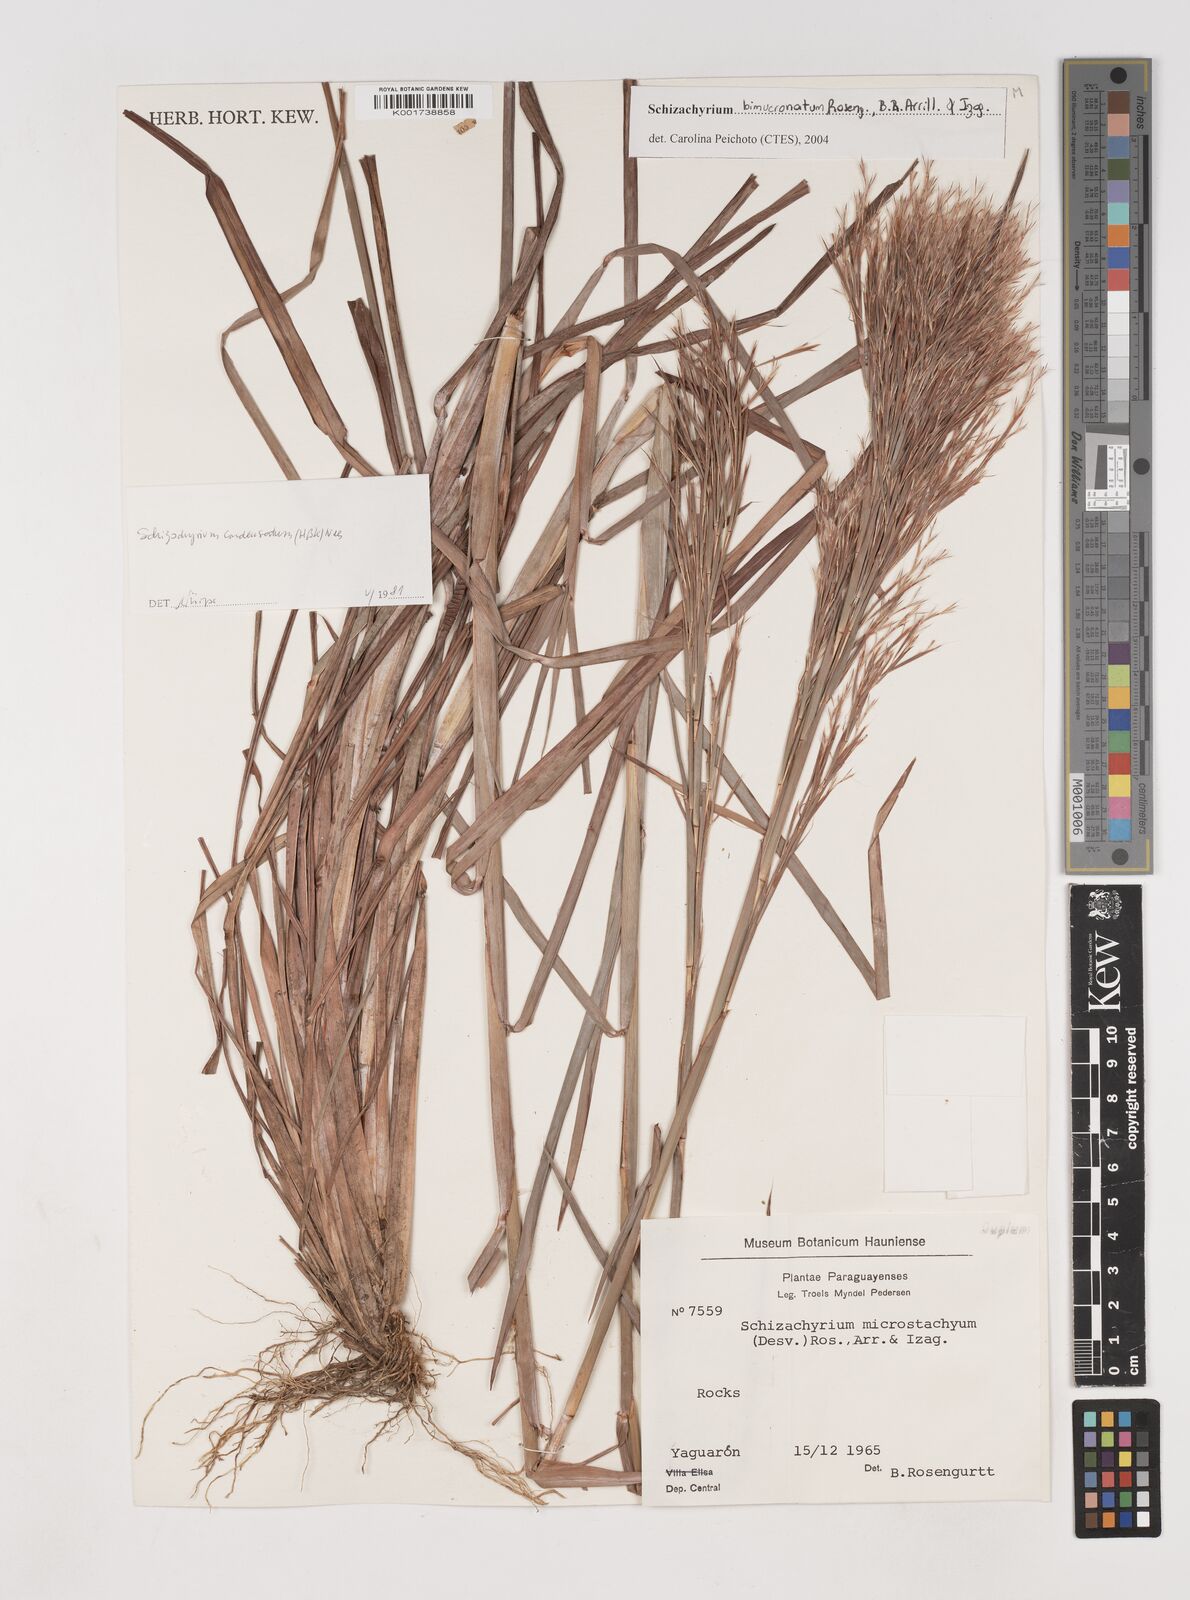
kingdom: Plantae
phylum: Tracheophyta
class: Liliopsida
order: Poales
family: Poaceae
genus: Andropogon
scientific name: Andropogon tener
